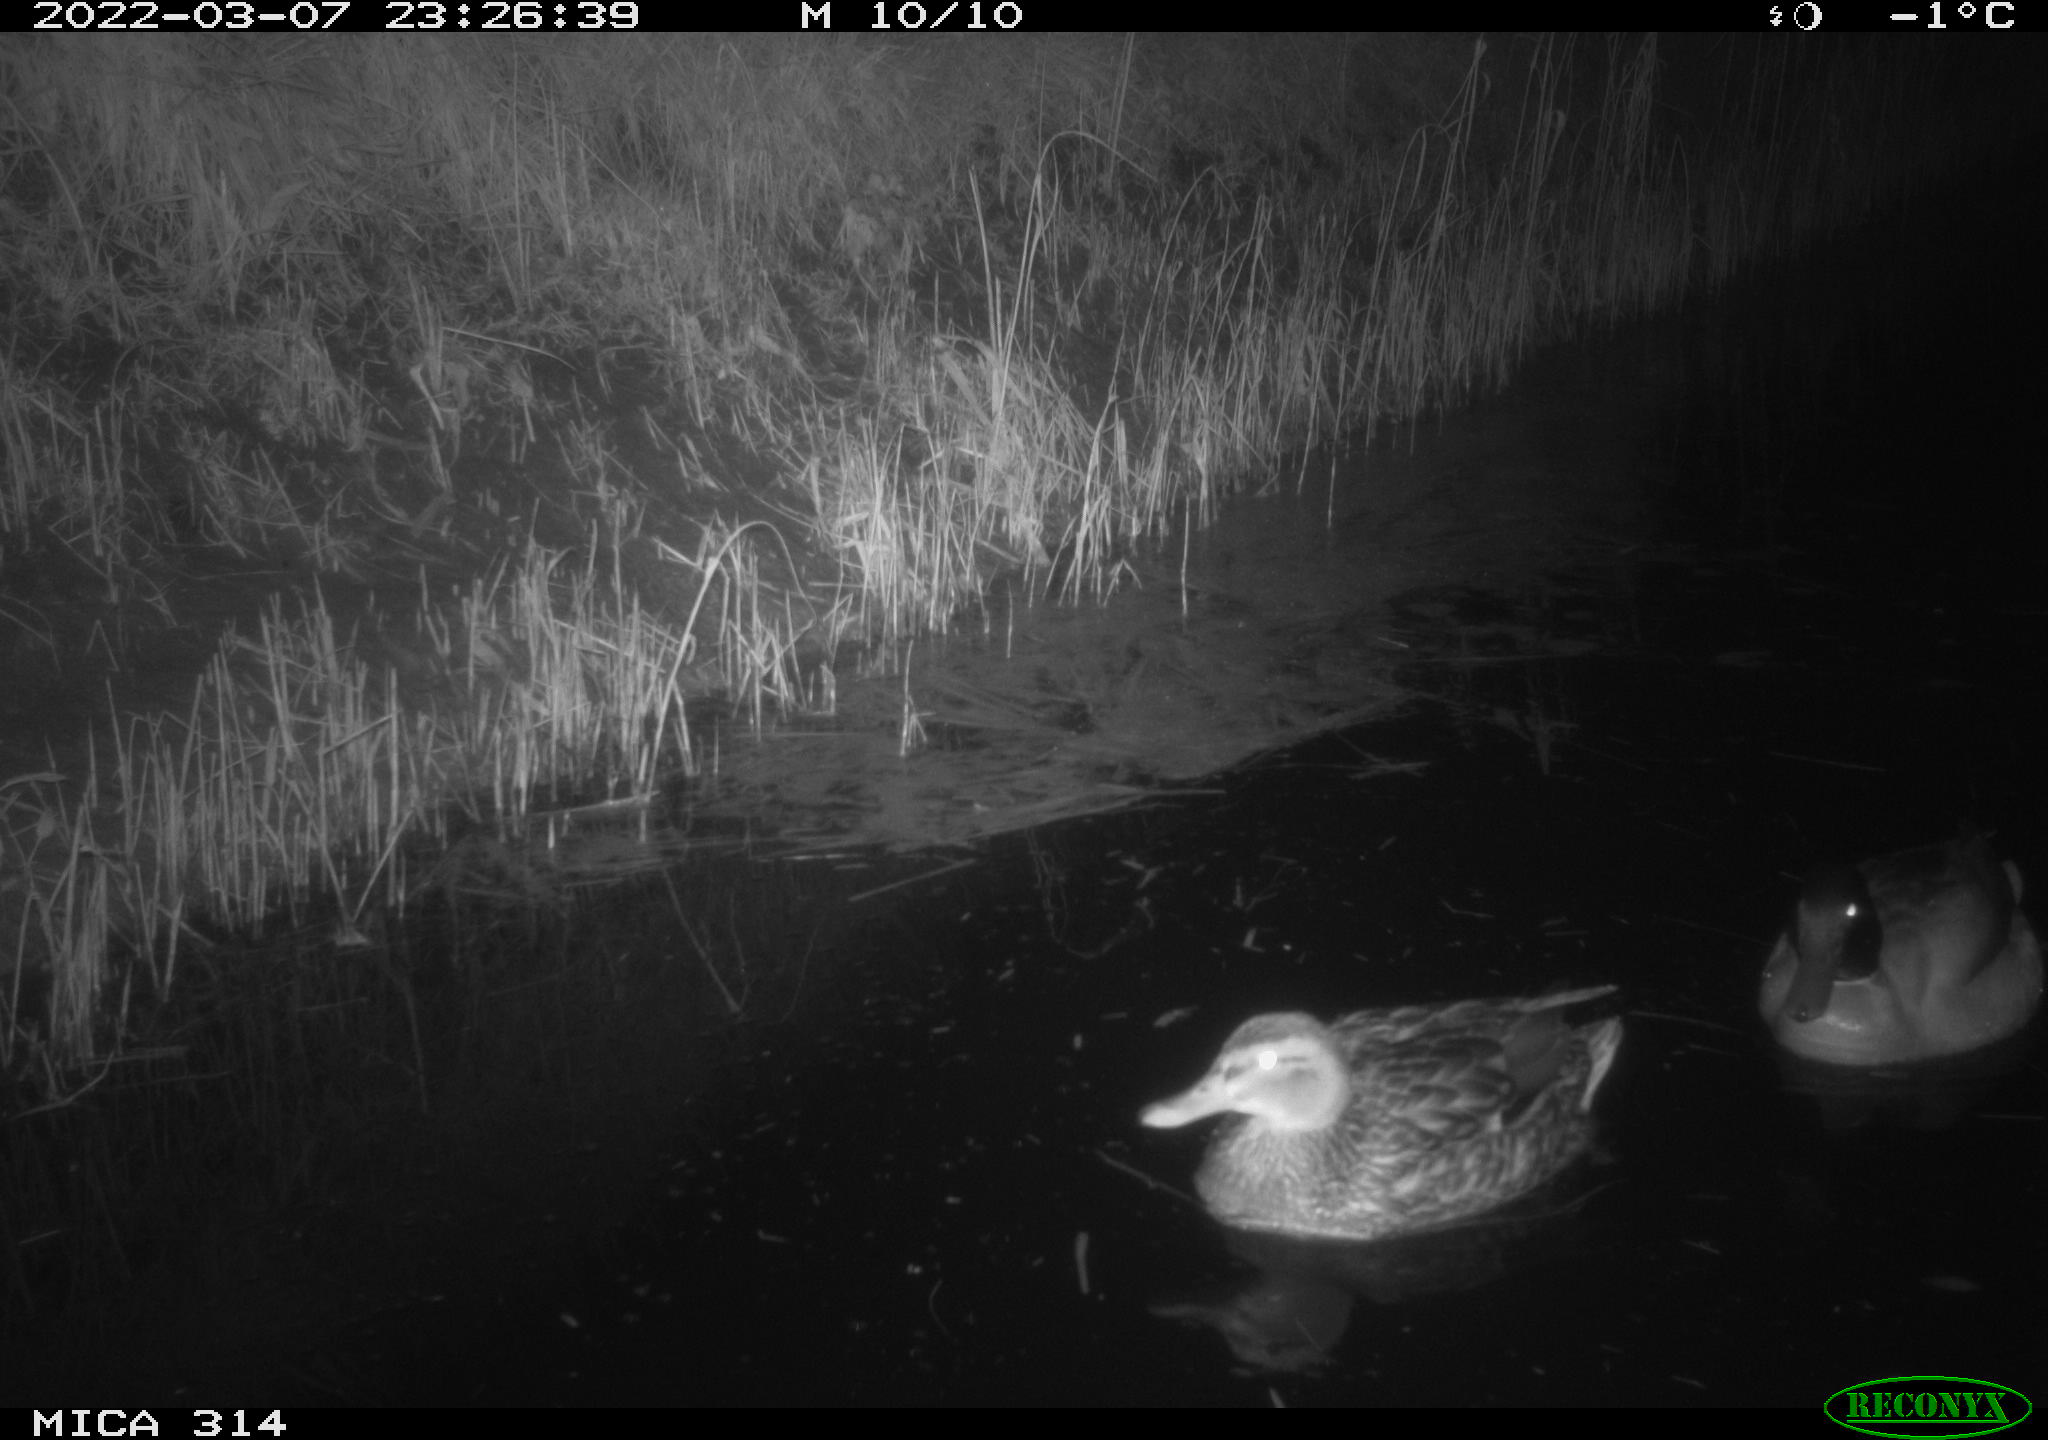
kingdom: Animalia
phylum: Chordata
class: Aves
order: Anseriformes
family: Anatidae
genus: Anas
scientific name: Anas platyrhynchos
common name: Mallard
